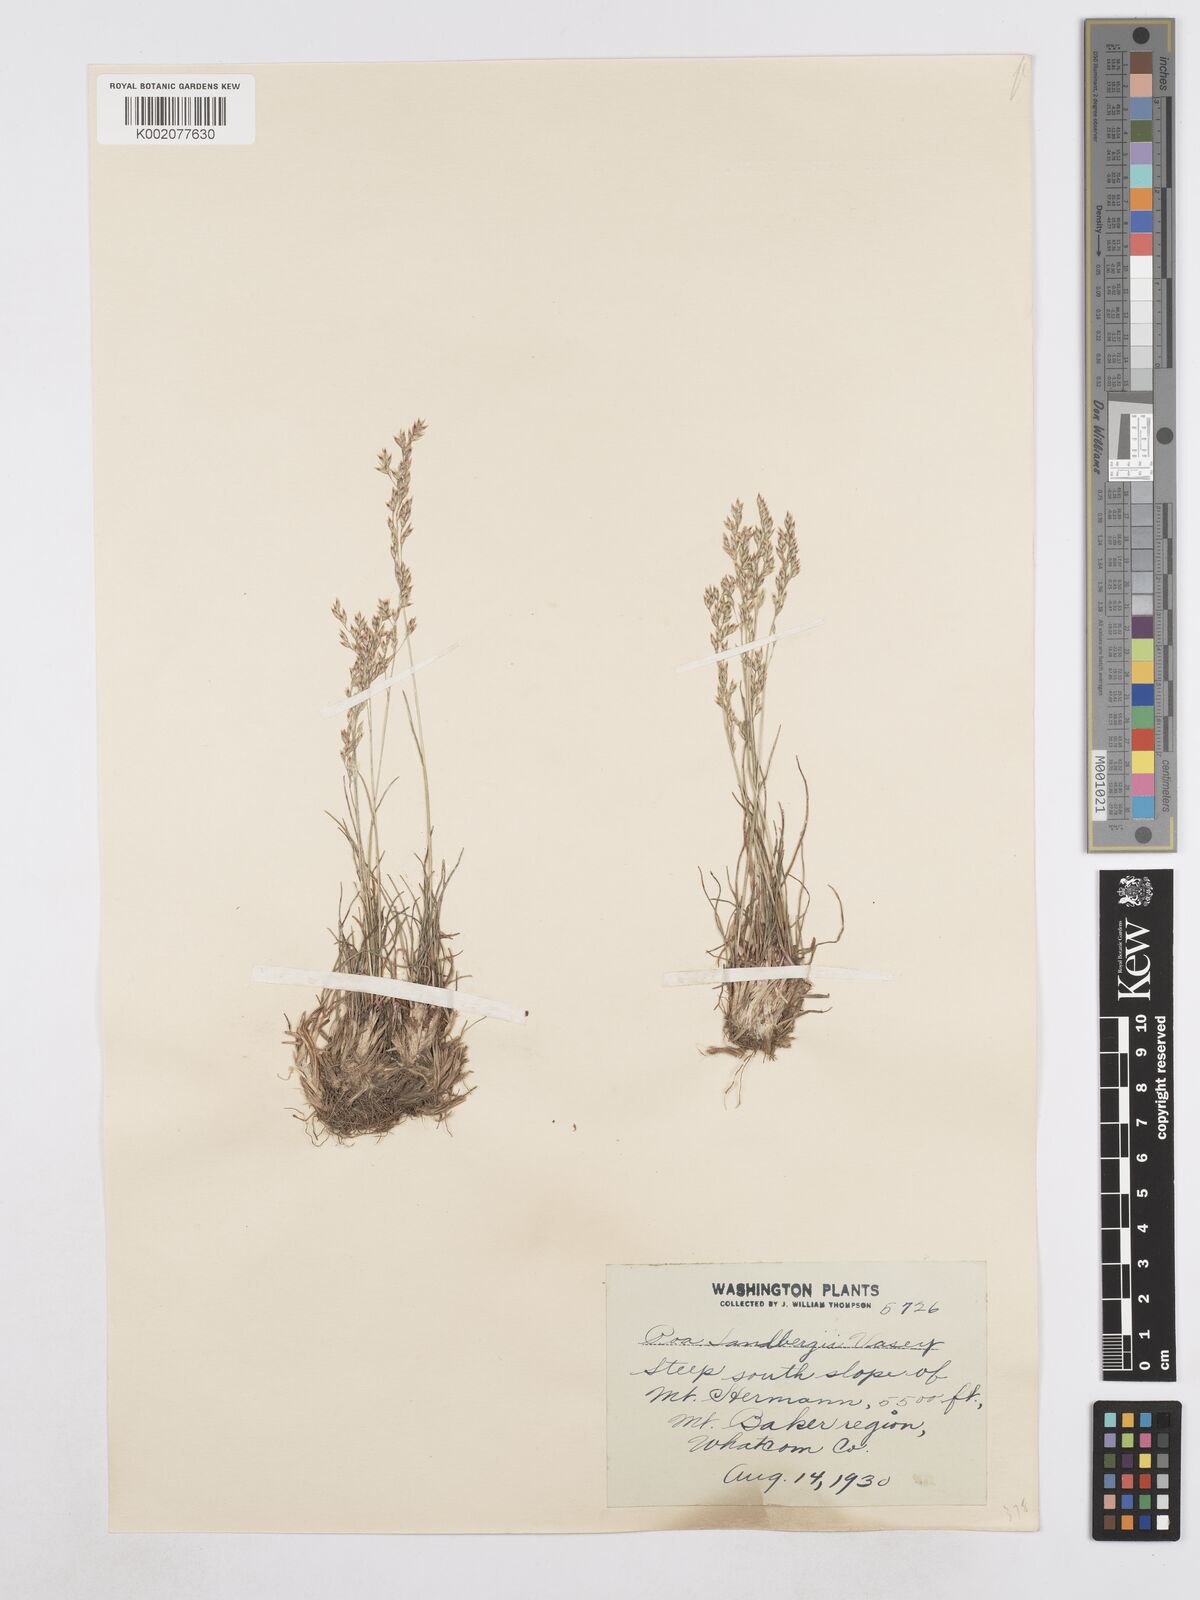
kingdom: Plantae
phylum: Tracheophyta
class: Liliopsida
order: Poales
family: Poaceae
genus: Poa
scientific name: Poa secunda
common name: Sandberg bluegrass
